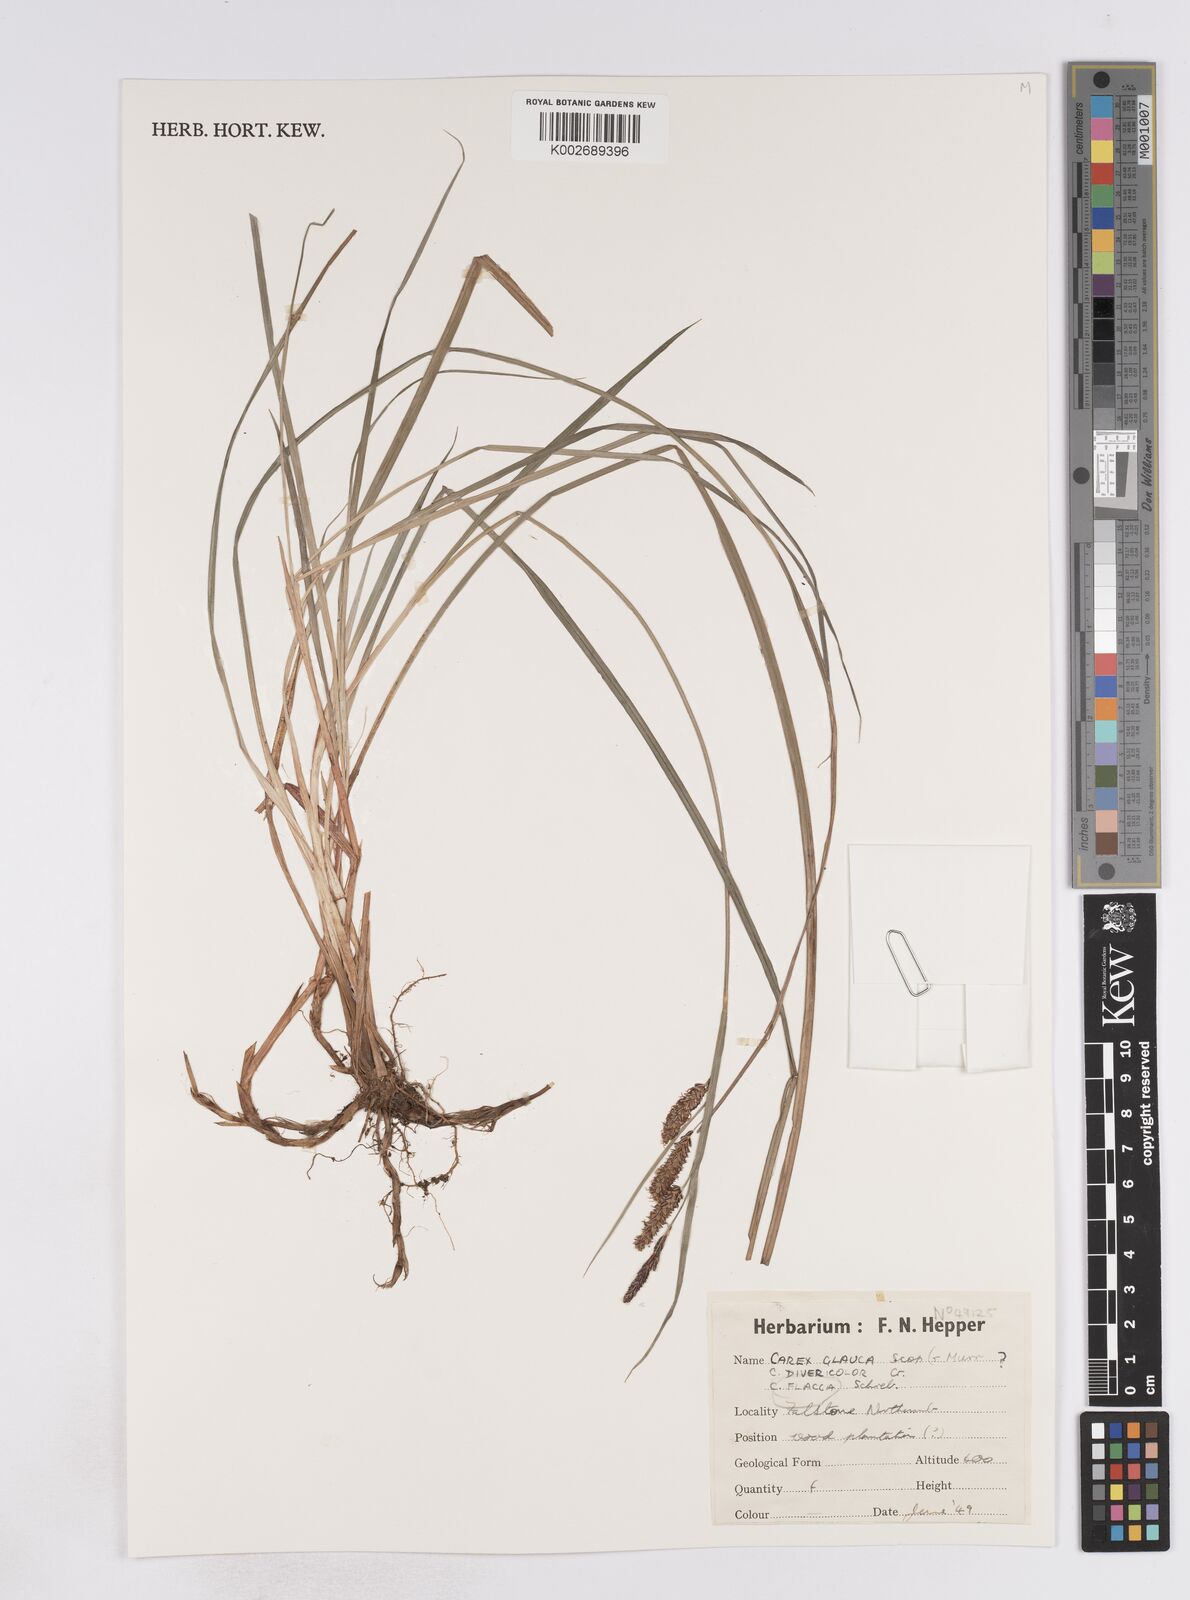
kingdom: Plantae
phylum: Tracheophyta
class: Liliopsida
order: Poales
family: Cyperaceae
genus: Carex
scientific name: Carex flacca
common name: Glaucous sedge
